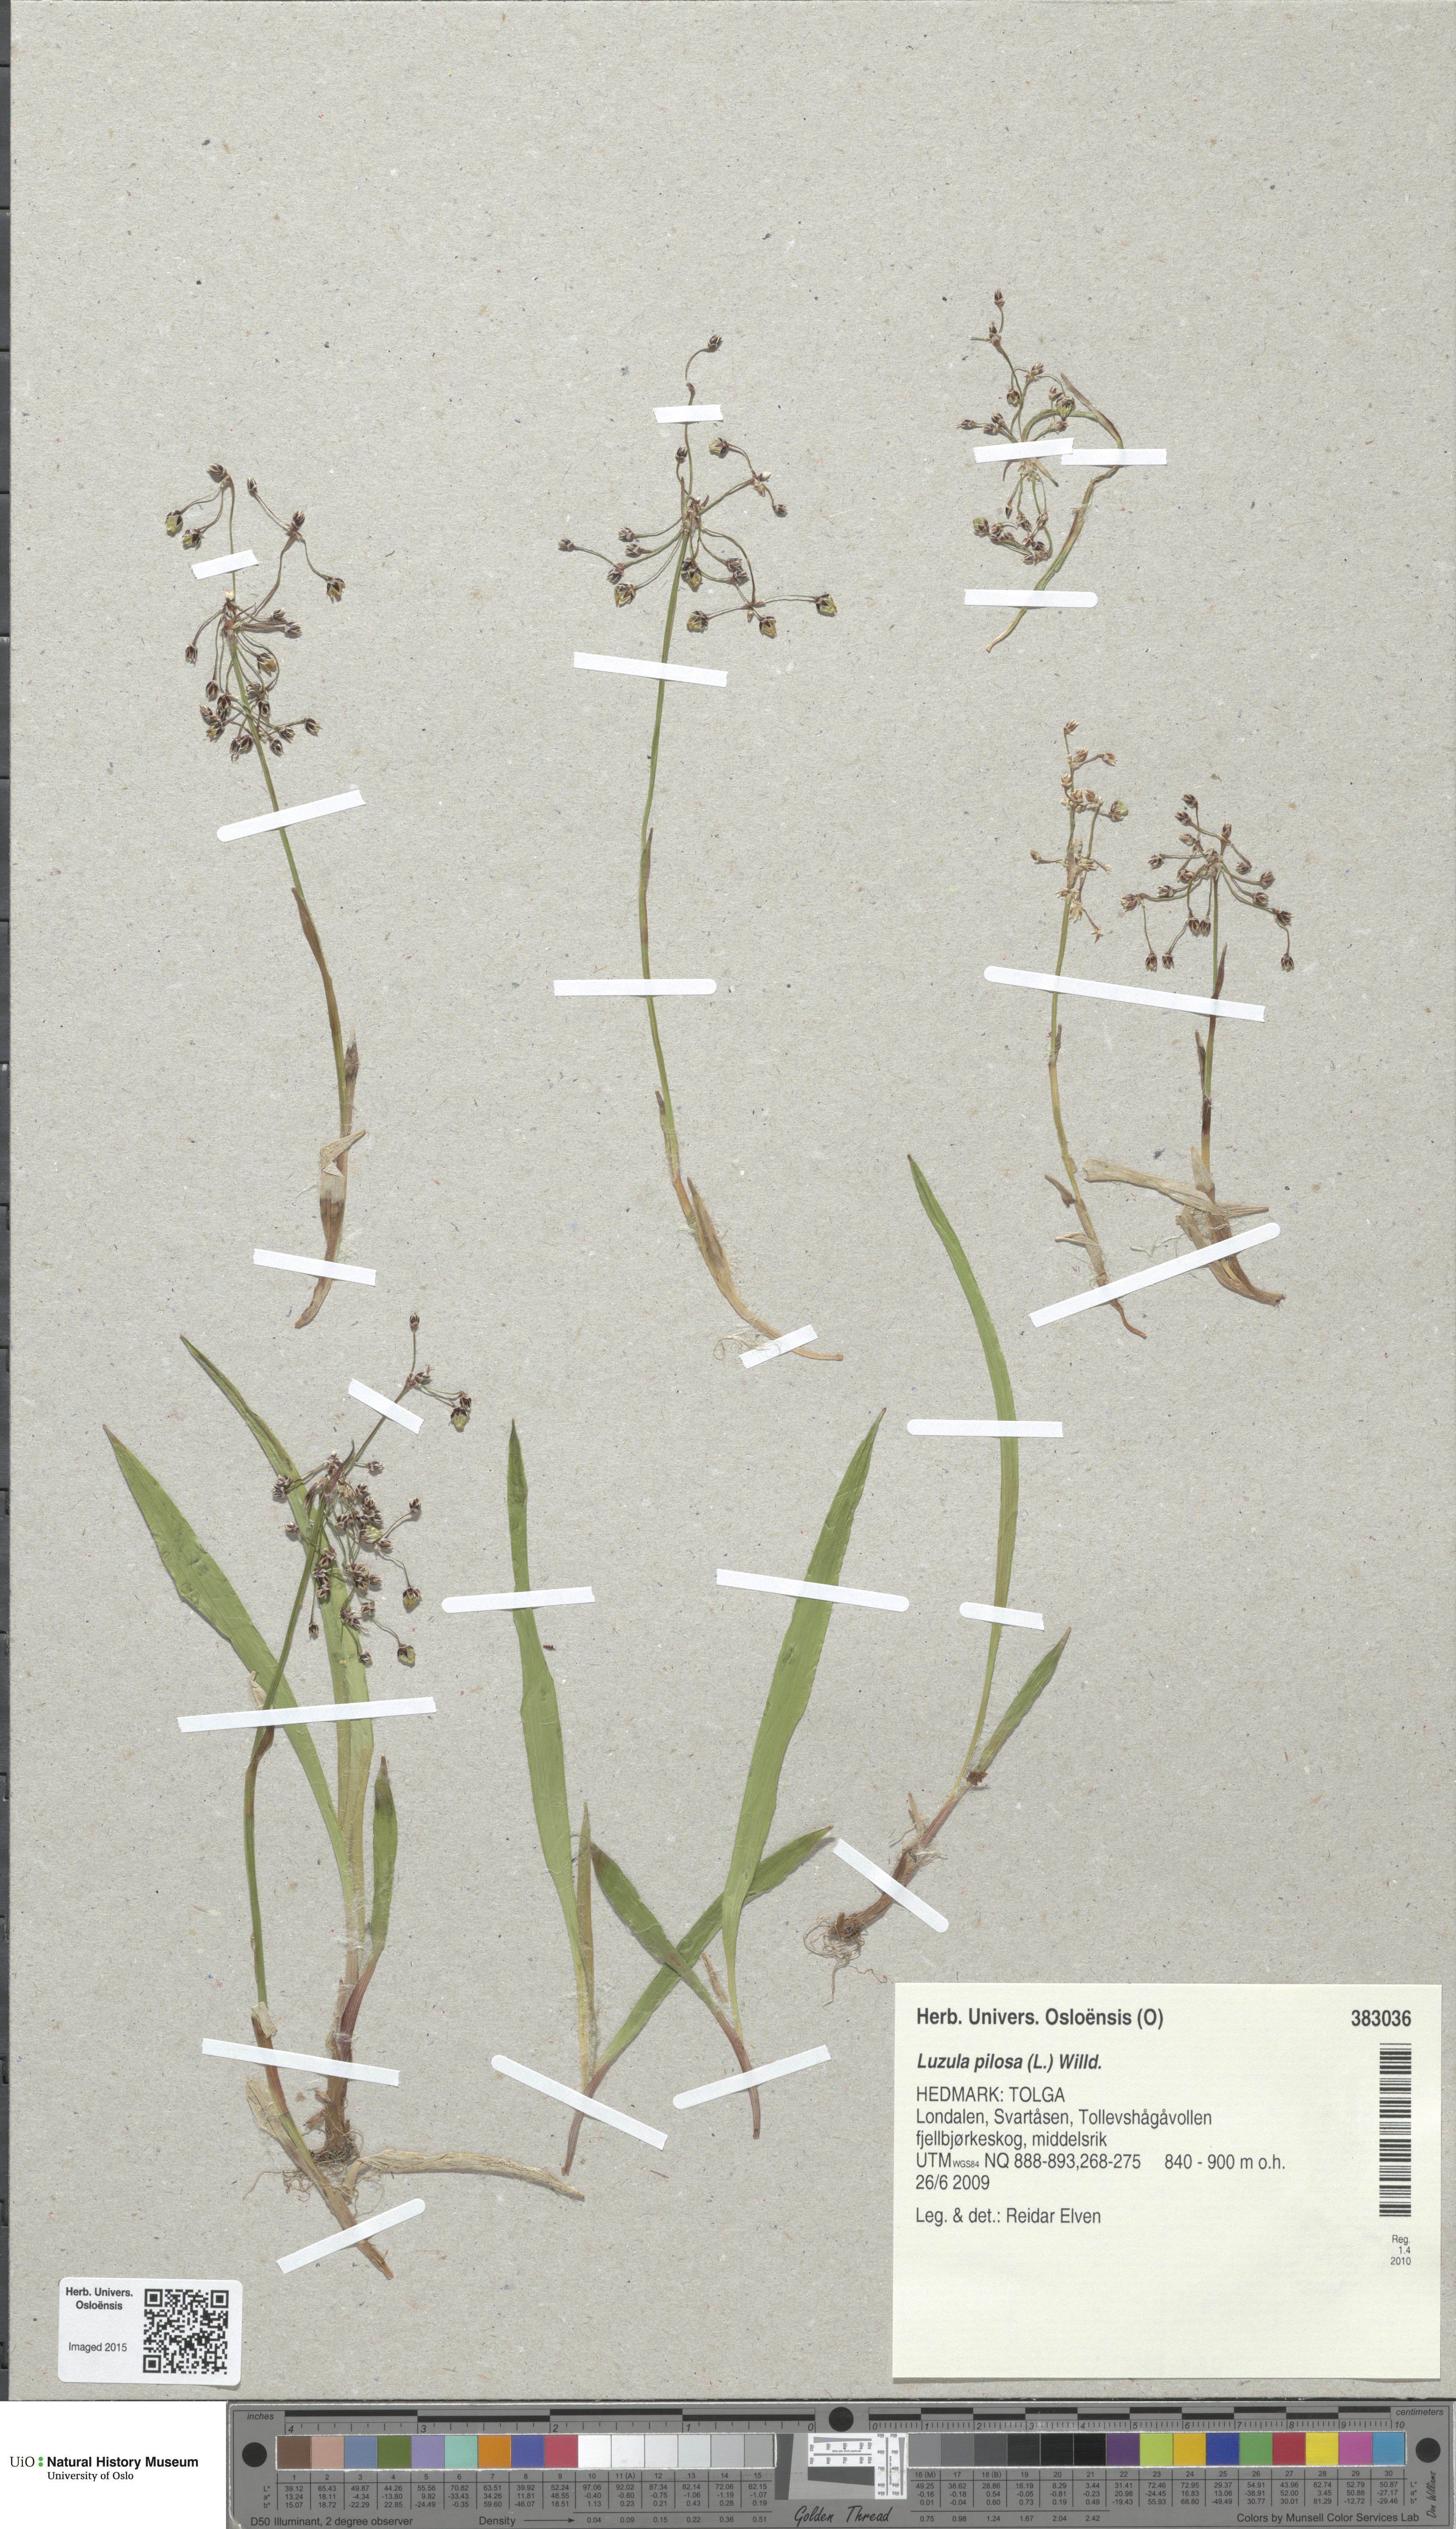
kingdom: Plantae
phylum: Tracheophyta
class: Liliopsida
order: Poales
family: Juncaceae
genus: Luzula
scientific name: Luzula pilosa
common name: Hairy wood-rush
